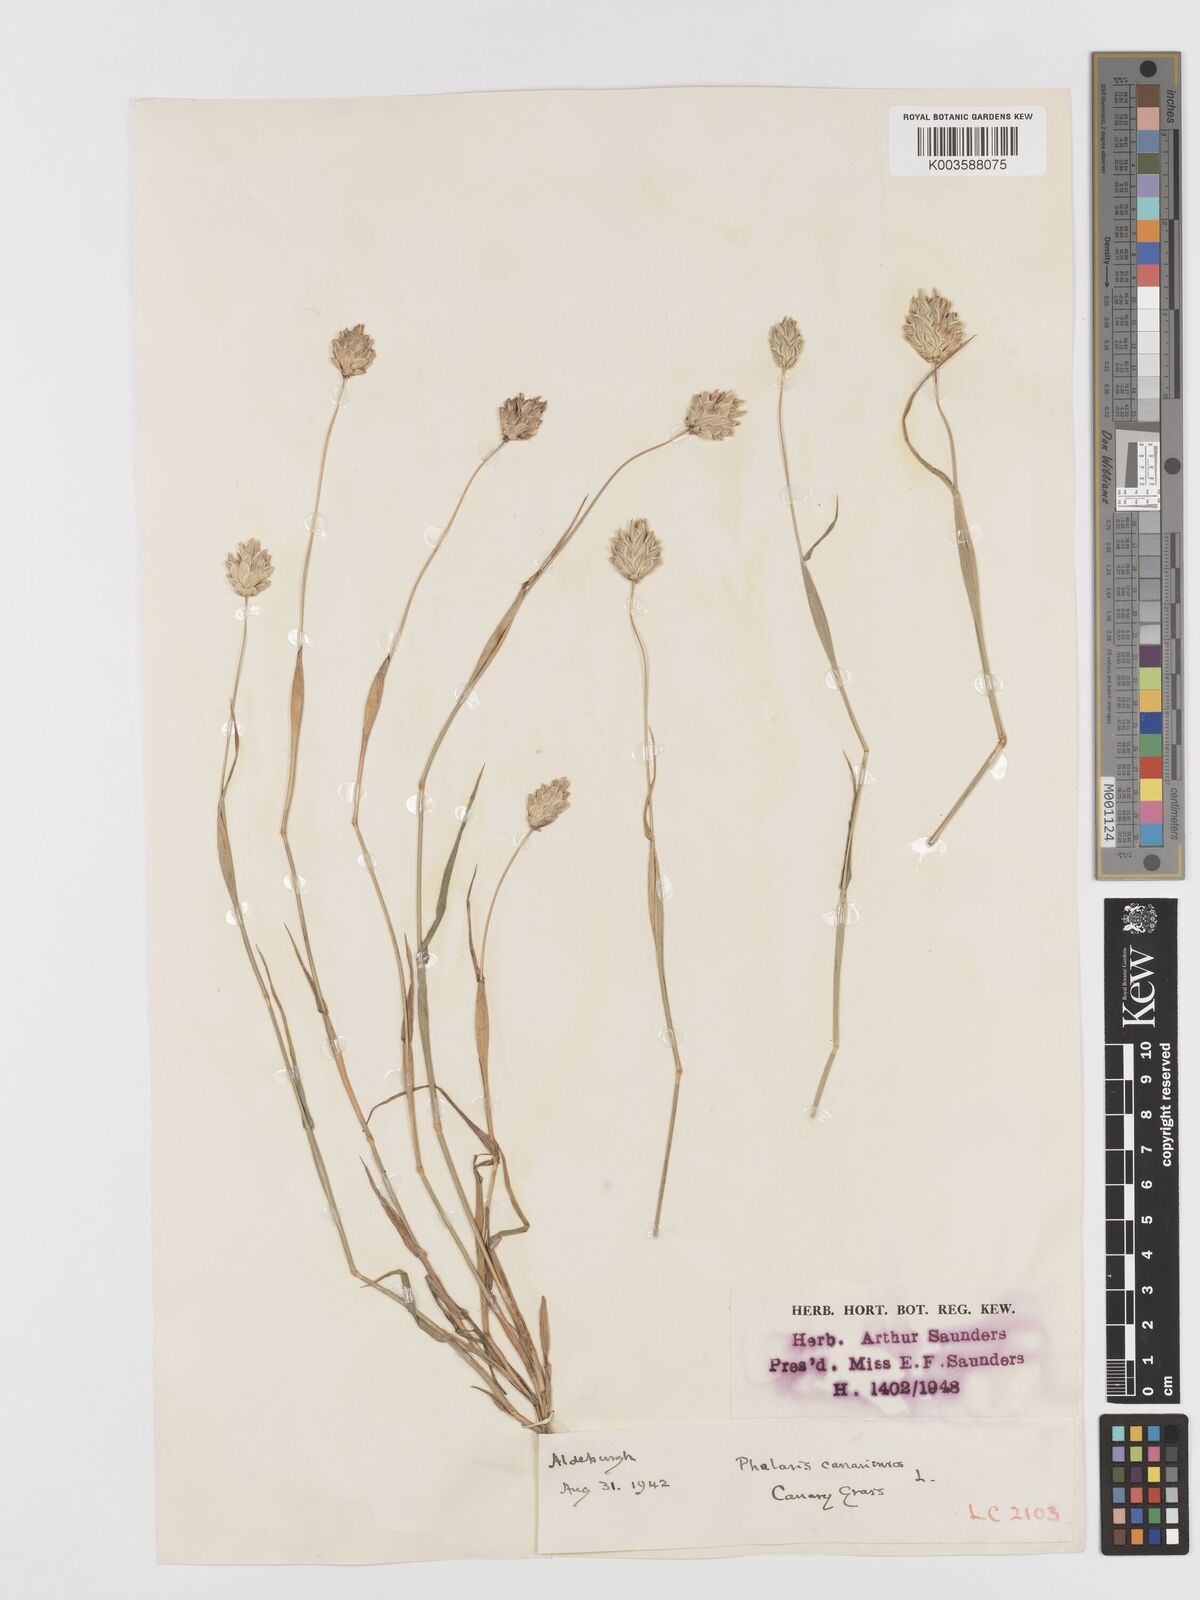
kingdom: Plantae
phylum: Tracheophyta
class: Liliopsida
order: Poales
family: Poaceae
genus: Phalaris
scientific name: Phalaris canariensis
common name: Annual canarygrass
